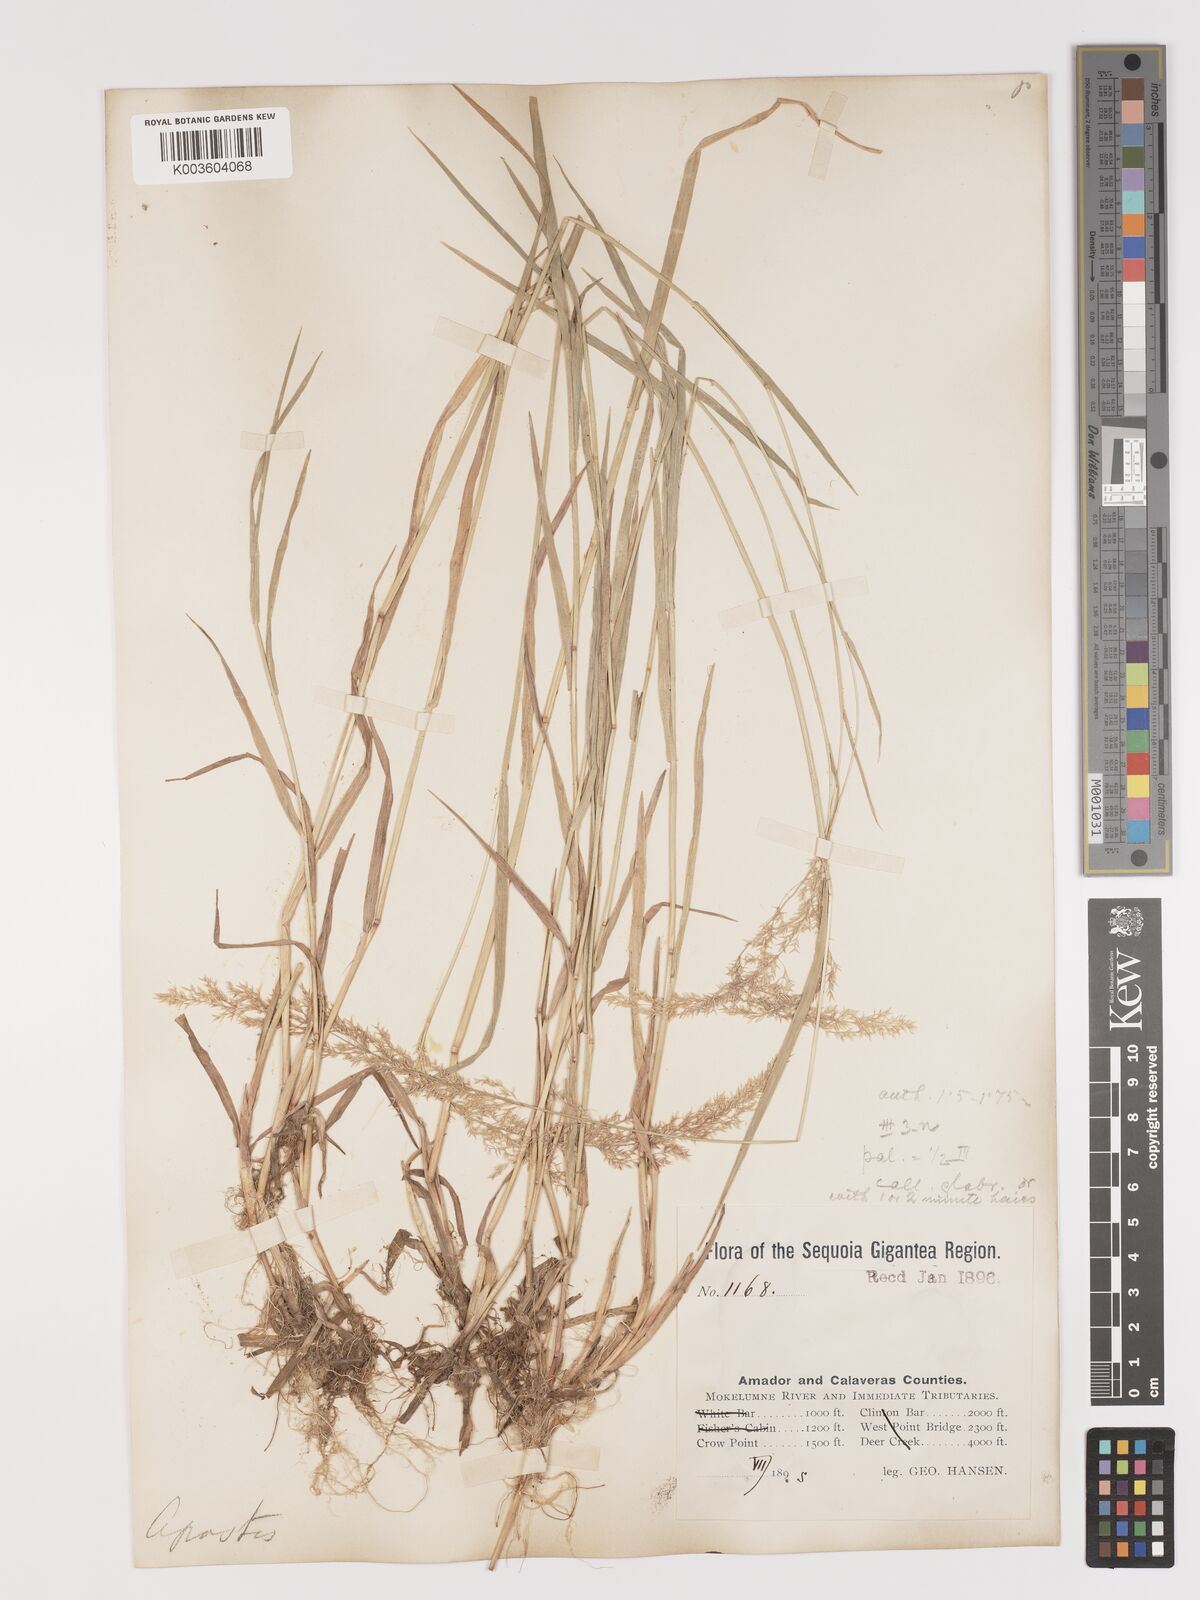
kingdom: Plantae
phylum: Tracheophyta
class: Liliopsida
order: Poales
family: Poaceae
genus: Agrostis
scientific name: Agrostis gigantea
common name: Black bent
